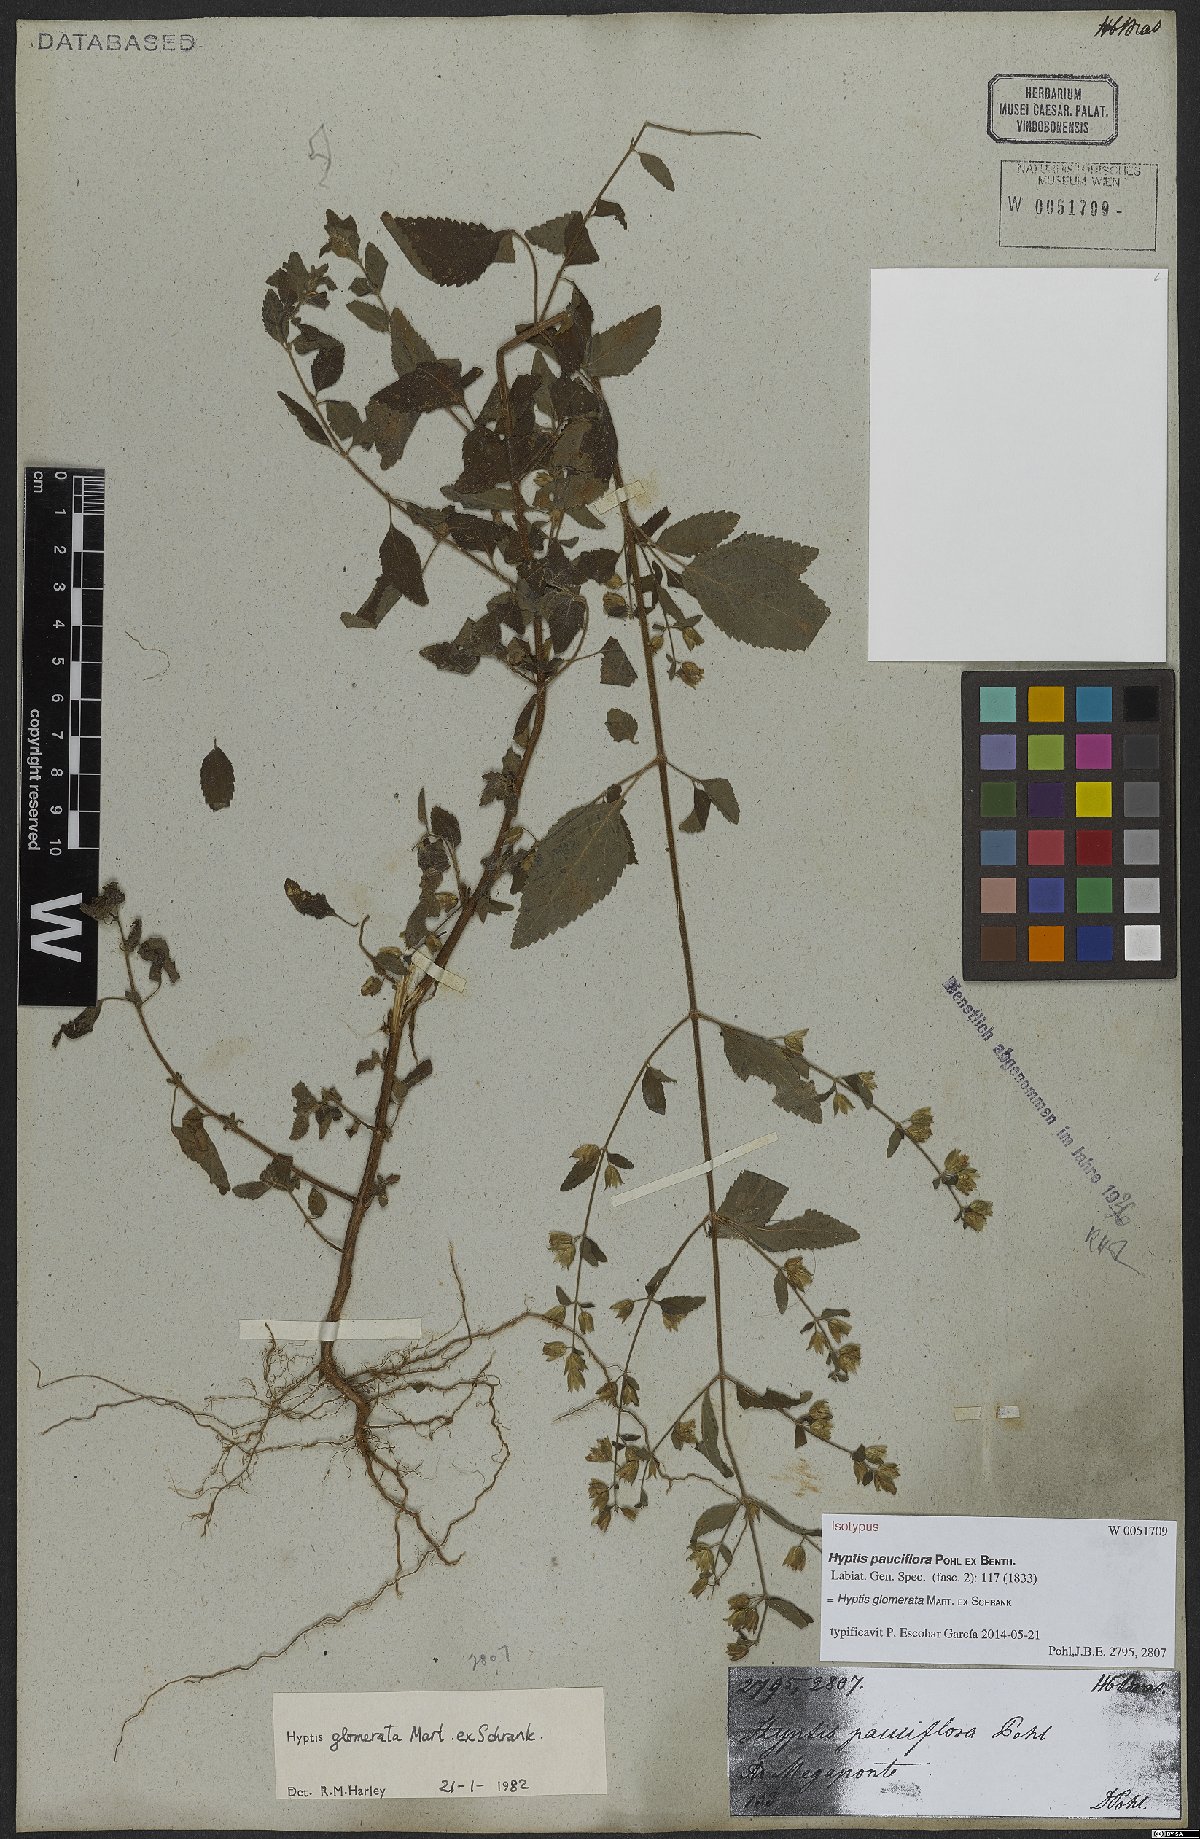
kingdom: Plantae
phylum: Tracheophyta
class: Magnoliopsida
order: Lamiales
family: Lamiaceae
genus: Oocephalus
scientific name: Oocephalus oppositiflorus
